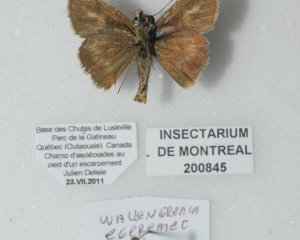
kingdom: Animalia
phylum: Arthropoda
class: Insecta
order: Lepidoptera
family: Hesperiidae
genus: Polites
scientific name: Polites egeremet
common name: Northern Broken-Dash
